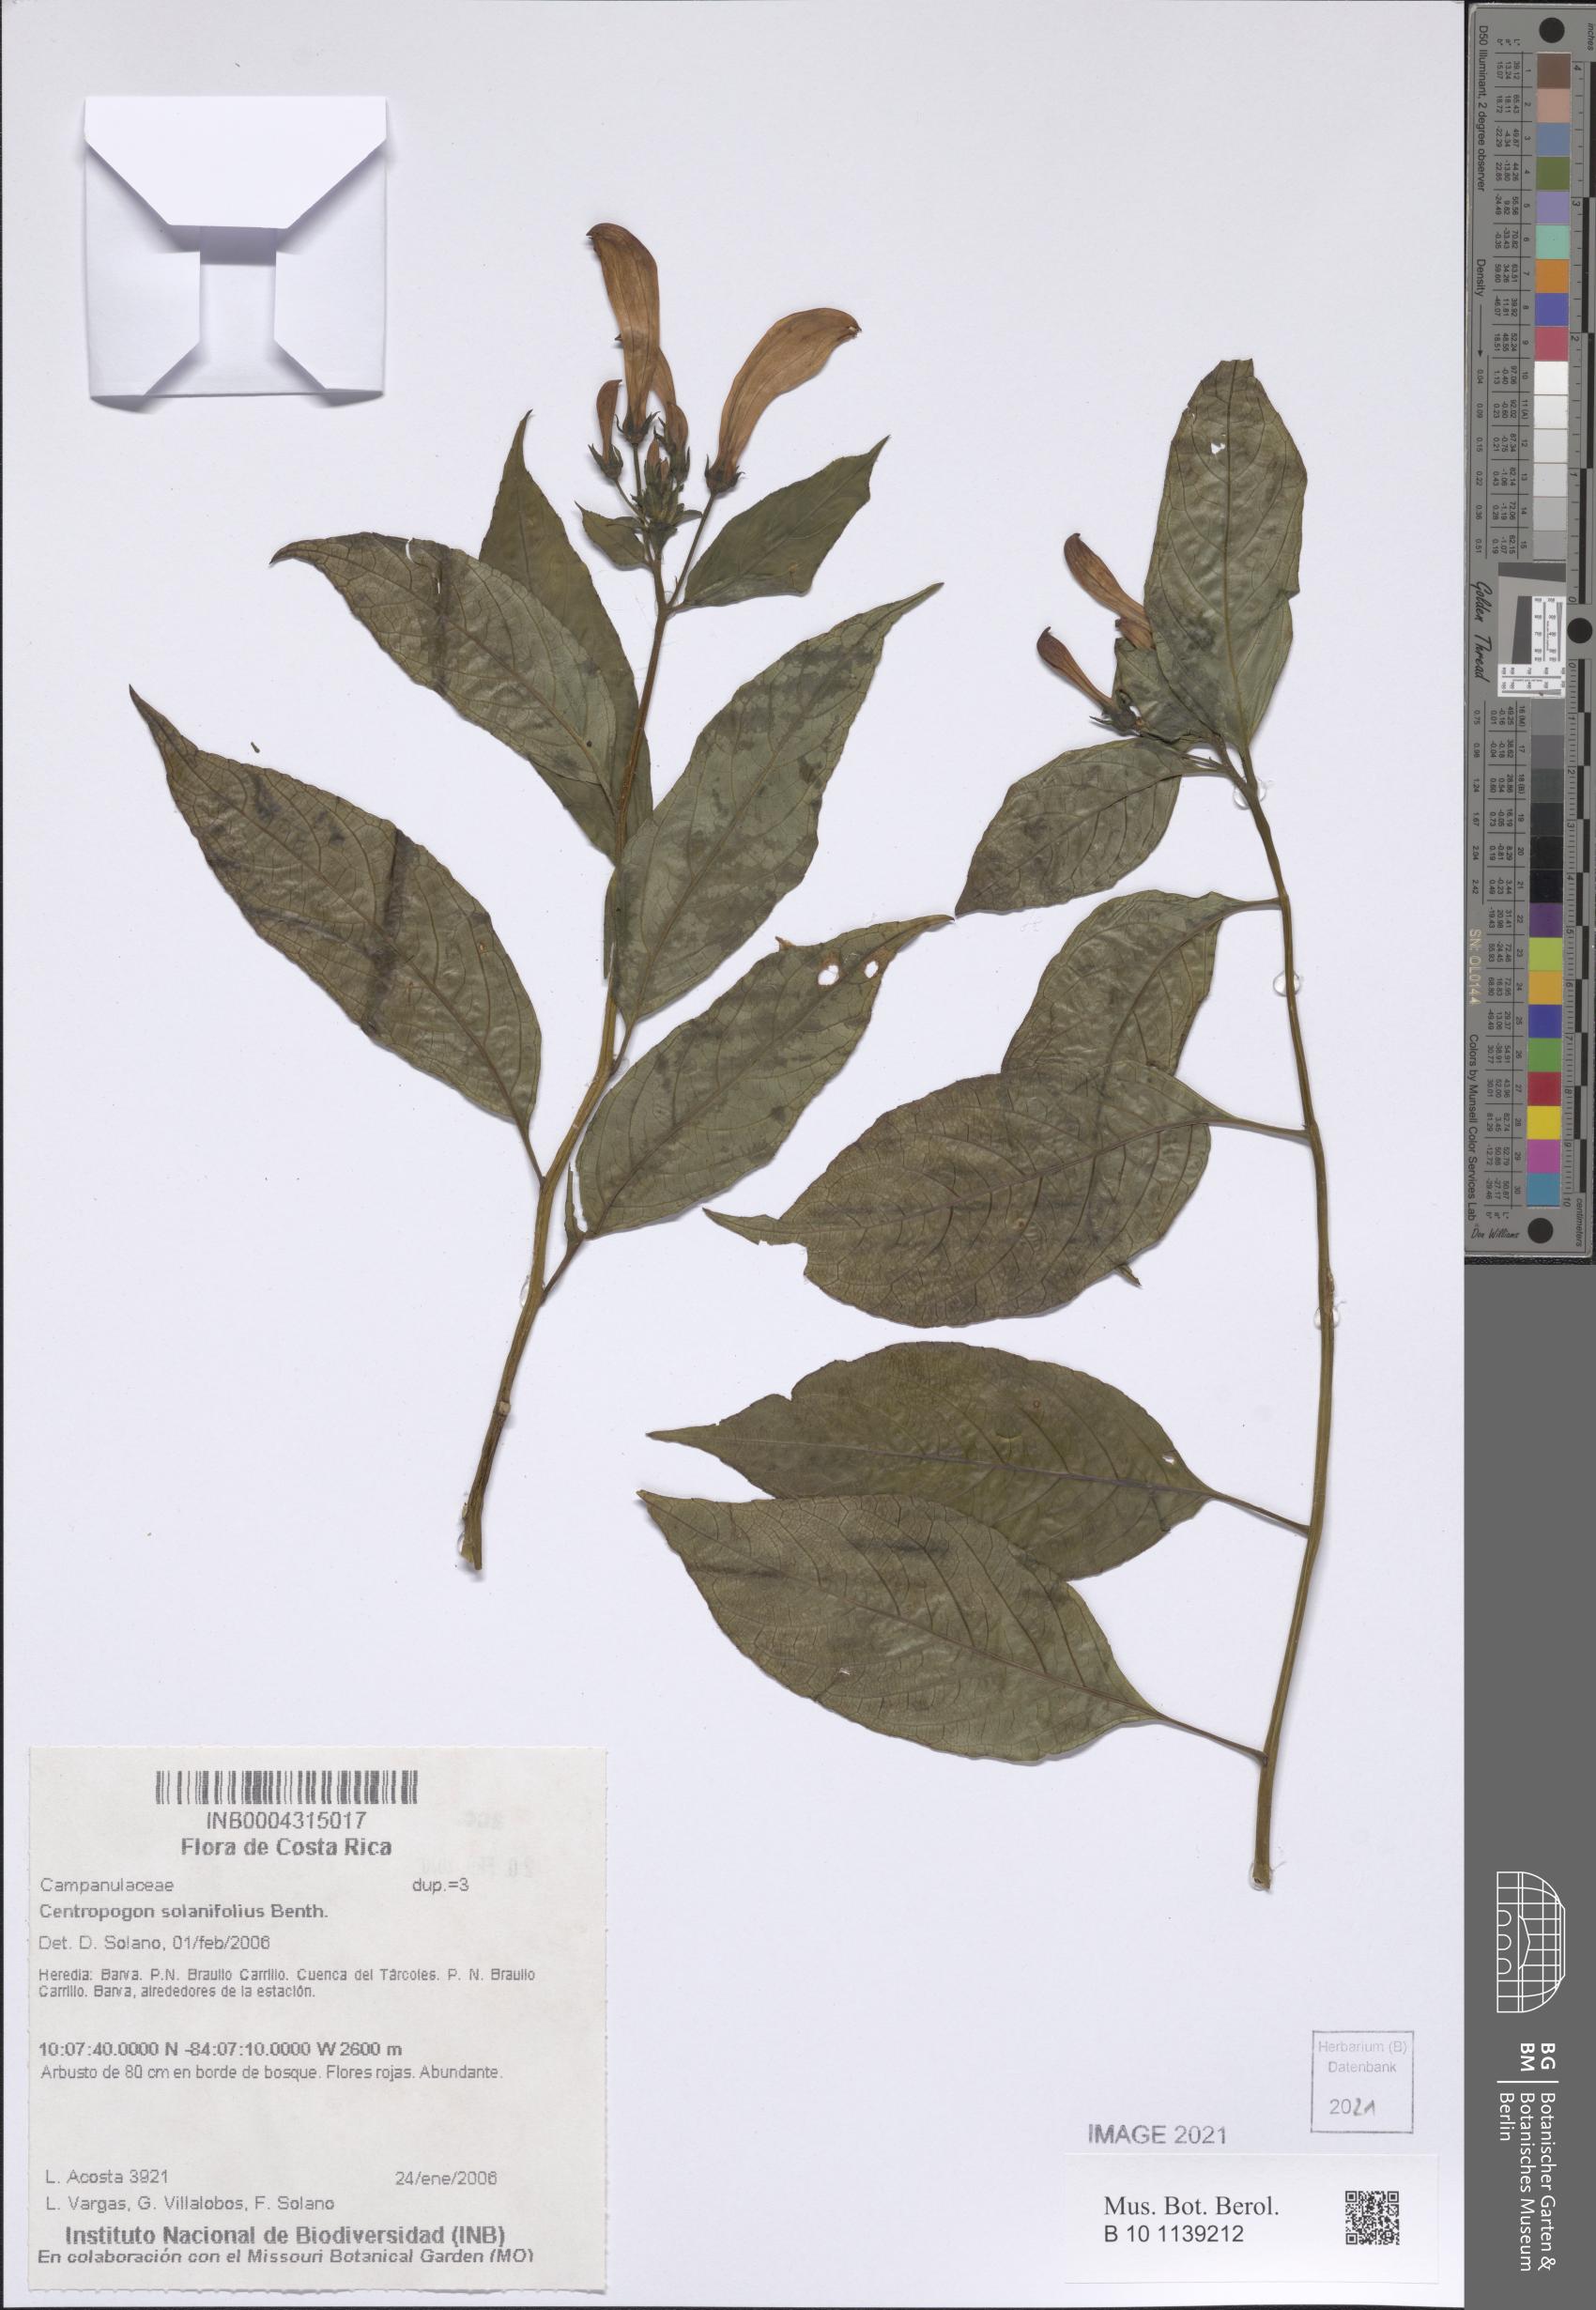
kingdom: Plantae
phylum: Tracheophyta
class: Magnoliopsida
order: Asterales
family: Campanulaceae
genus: Centropogon
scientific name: Centropogon solanifolius
